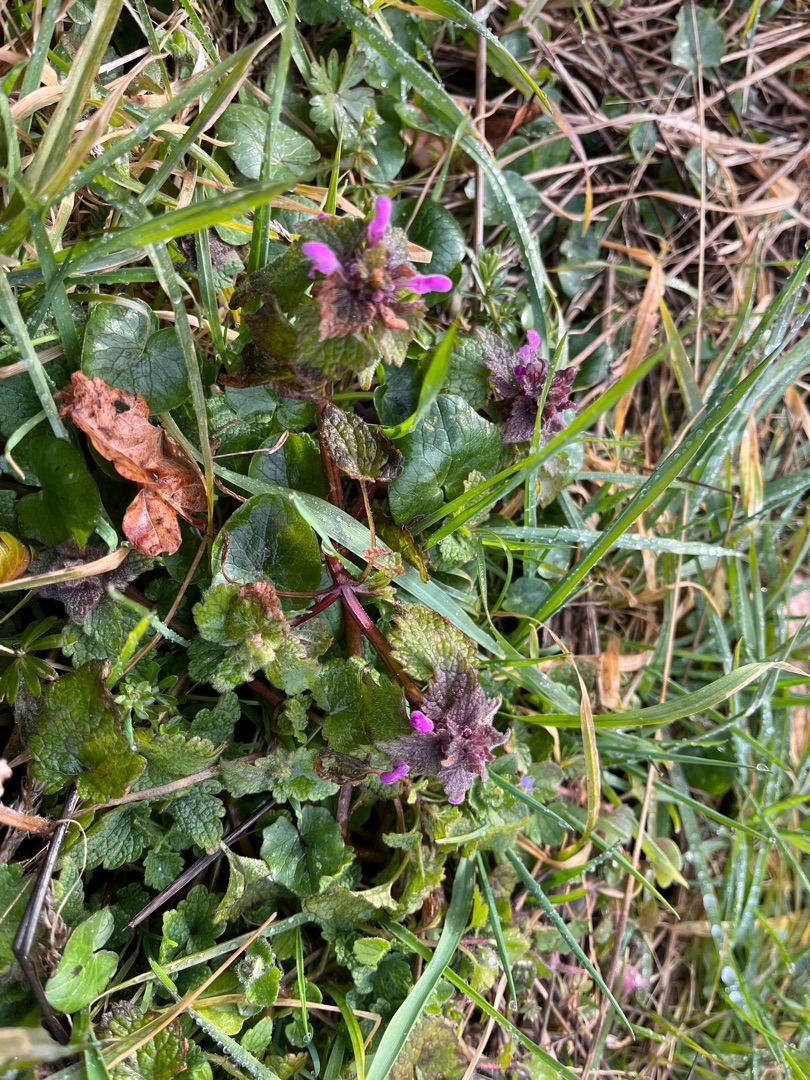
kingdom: Plantae
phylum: Tracheophyta
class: Magnoliopsida
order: Lamiales
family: Lamiaceae
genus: Lamium
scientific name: Lamium purpureum
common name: Rød tvetand
